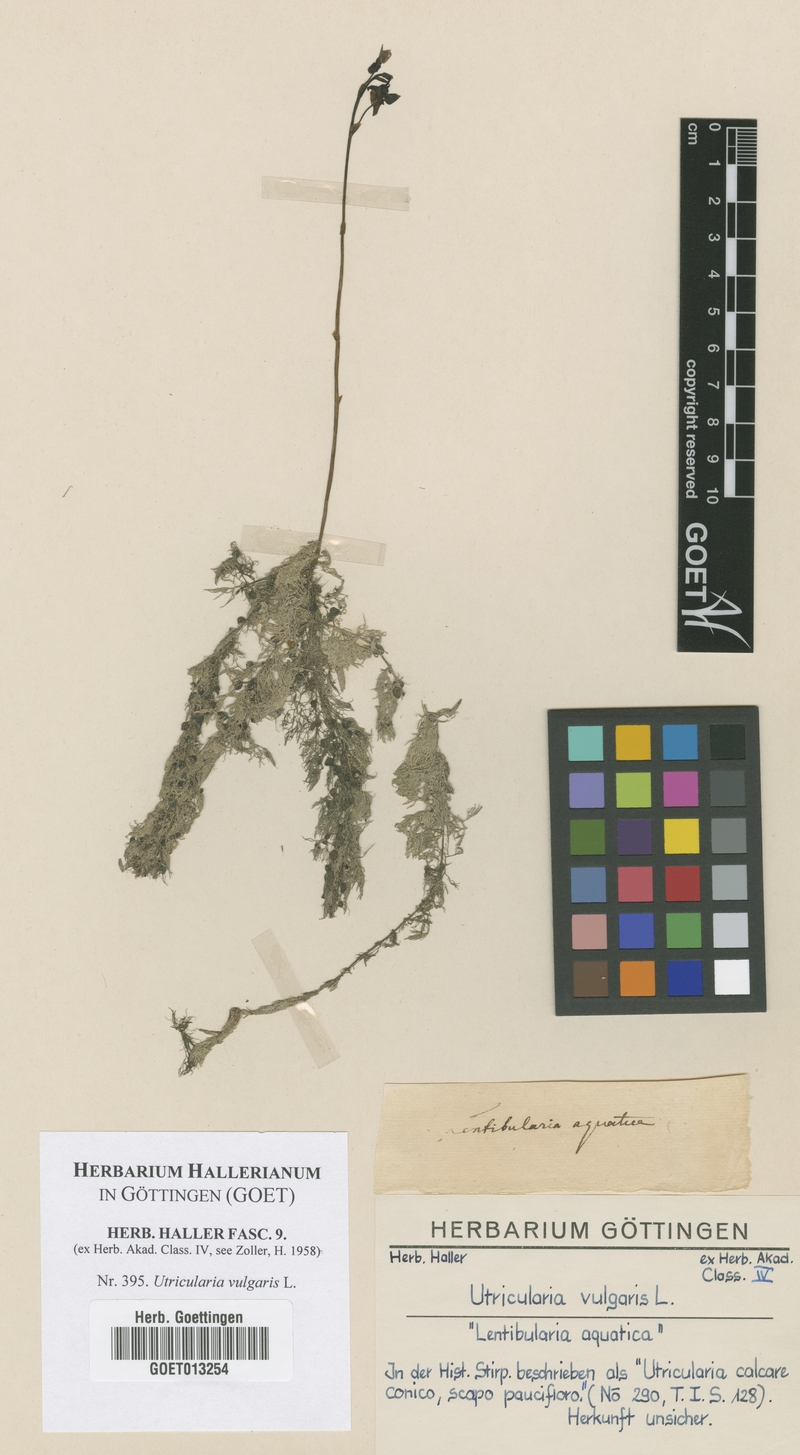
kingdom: Plantae
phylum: Tracheophyta
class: Magnoliopsida
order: Lamiales
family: Lentibulariaceae
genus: Utricularia
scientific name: Utricularia vulgaris
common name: Greater bladderwort
